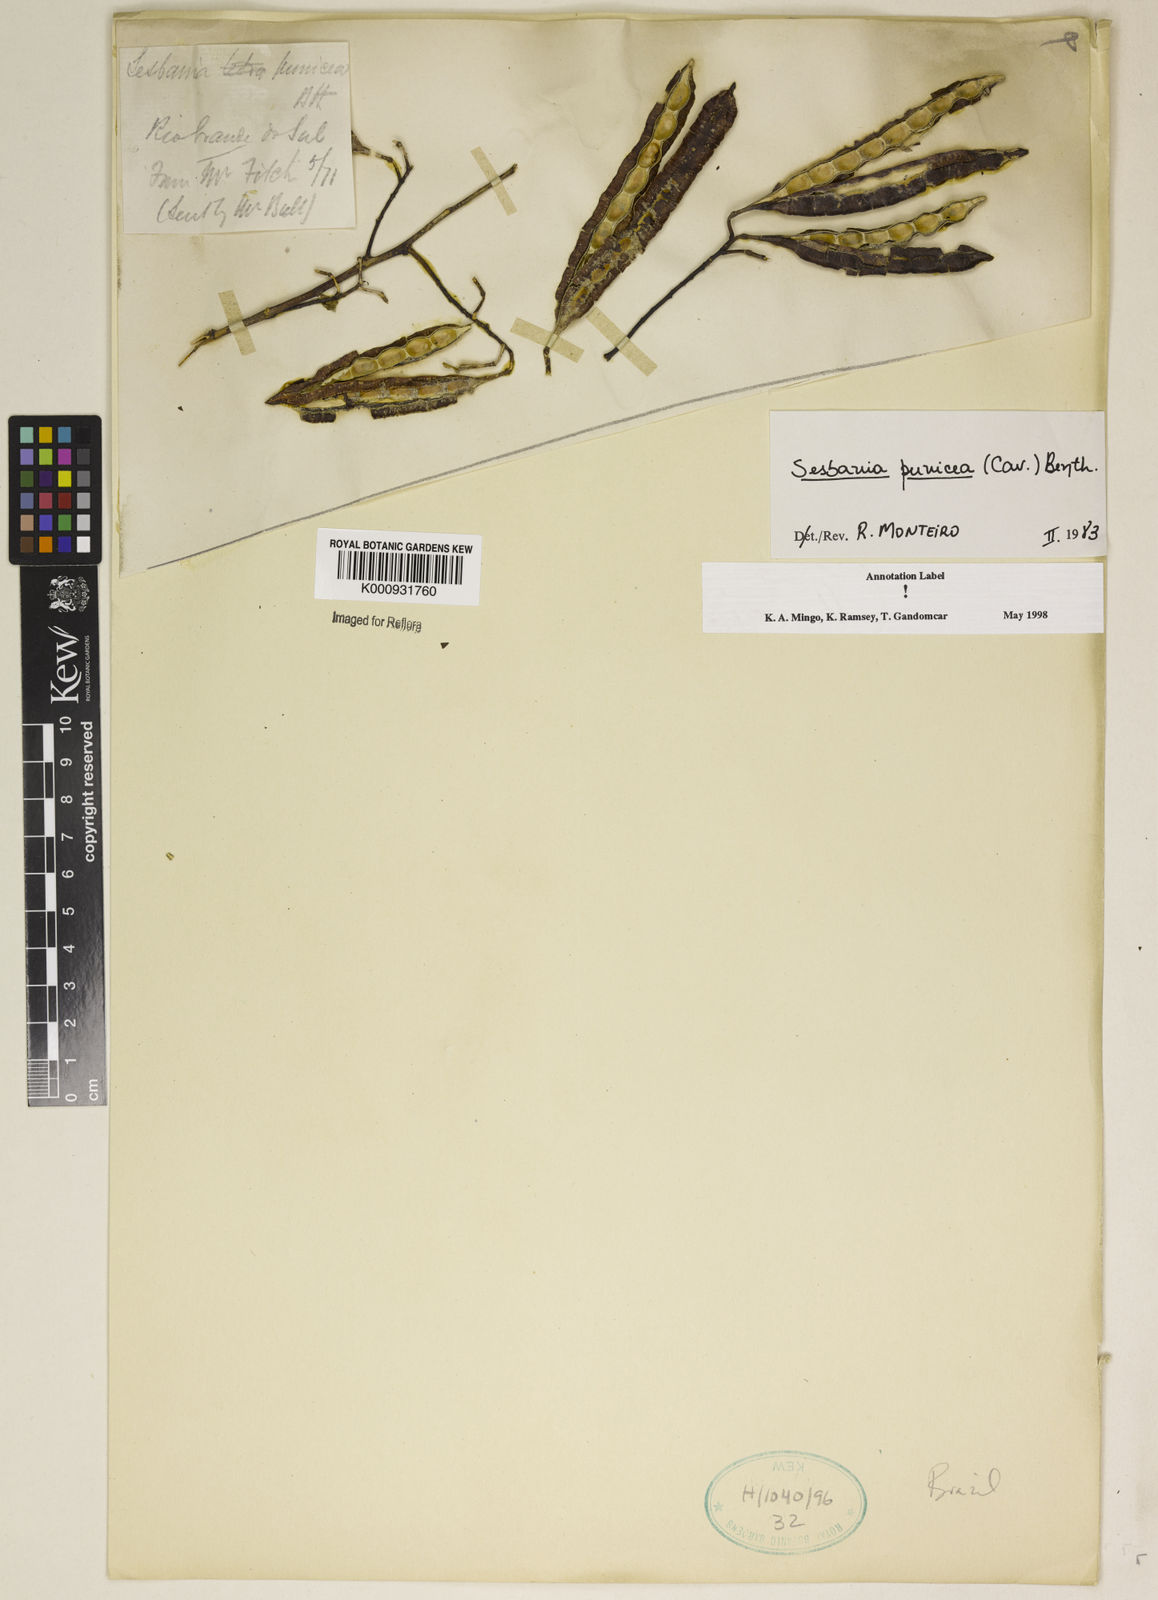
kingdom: Plantae
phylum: Tracheophyta
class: Magnoliopsida
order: Fabales
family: Fabaceae
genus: Sesbania
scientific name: Sesbania punicea
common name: Rattlebox
